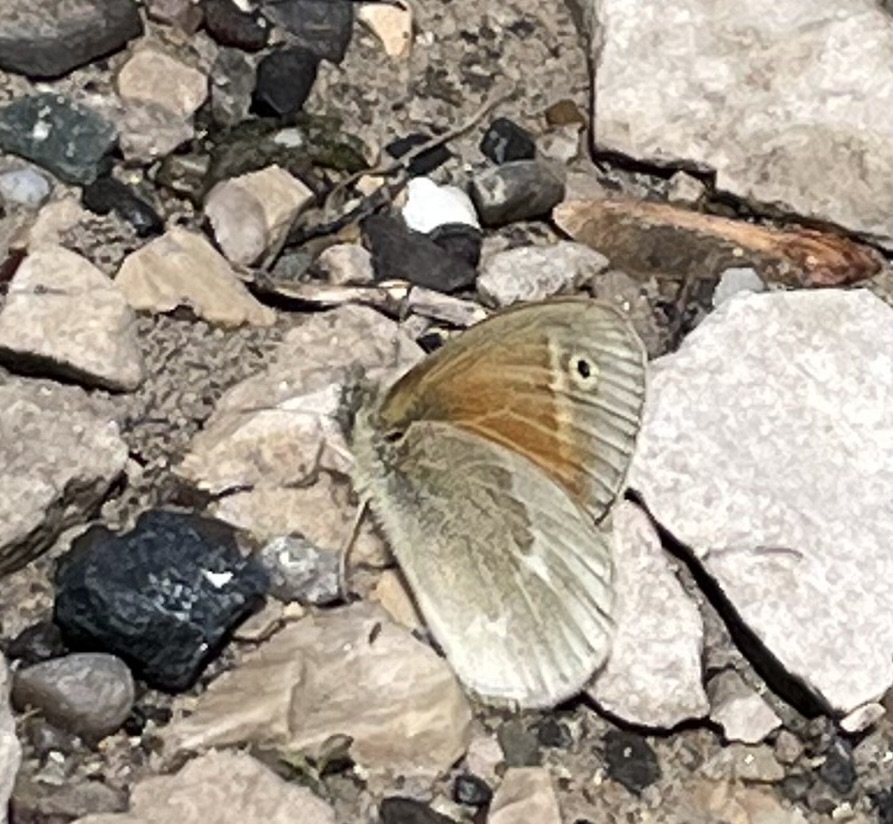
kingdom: Animalia
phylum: Arthropoda
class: Insecta
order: Lepidoptera
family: Nymphalidae
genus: Coenonympha
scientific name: Coenonympha tullia
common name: Large Heath
